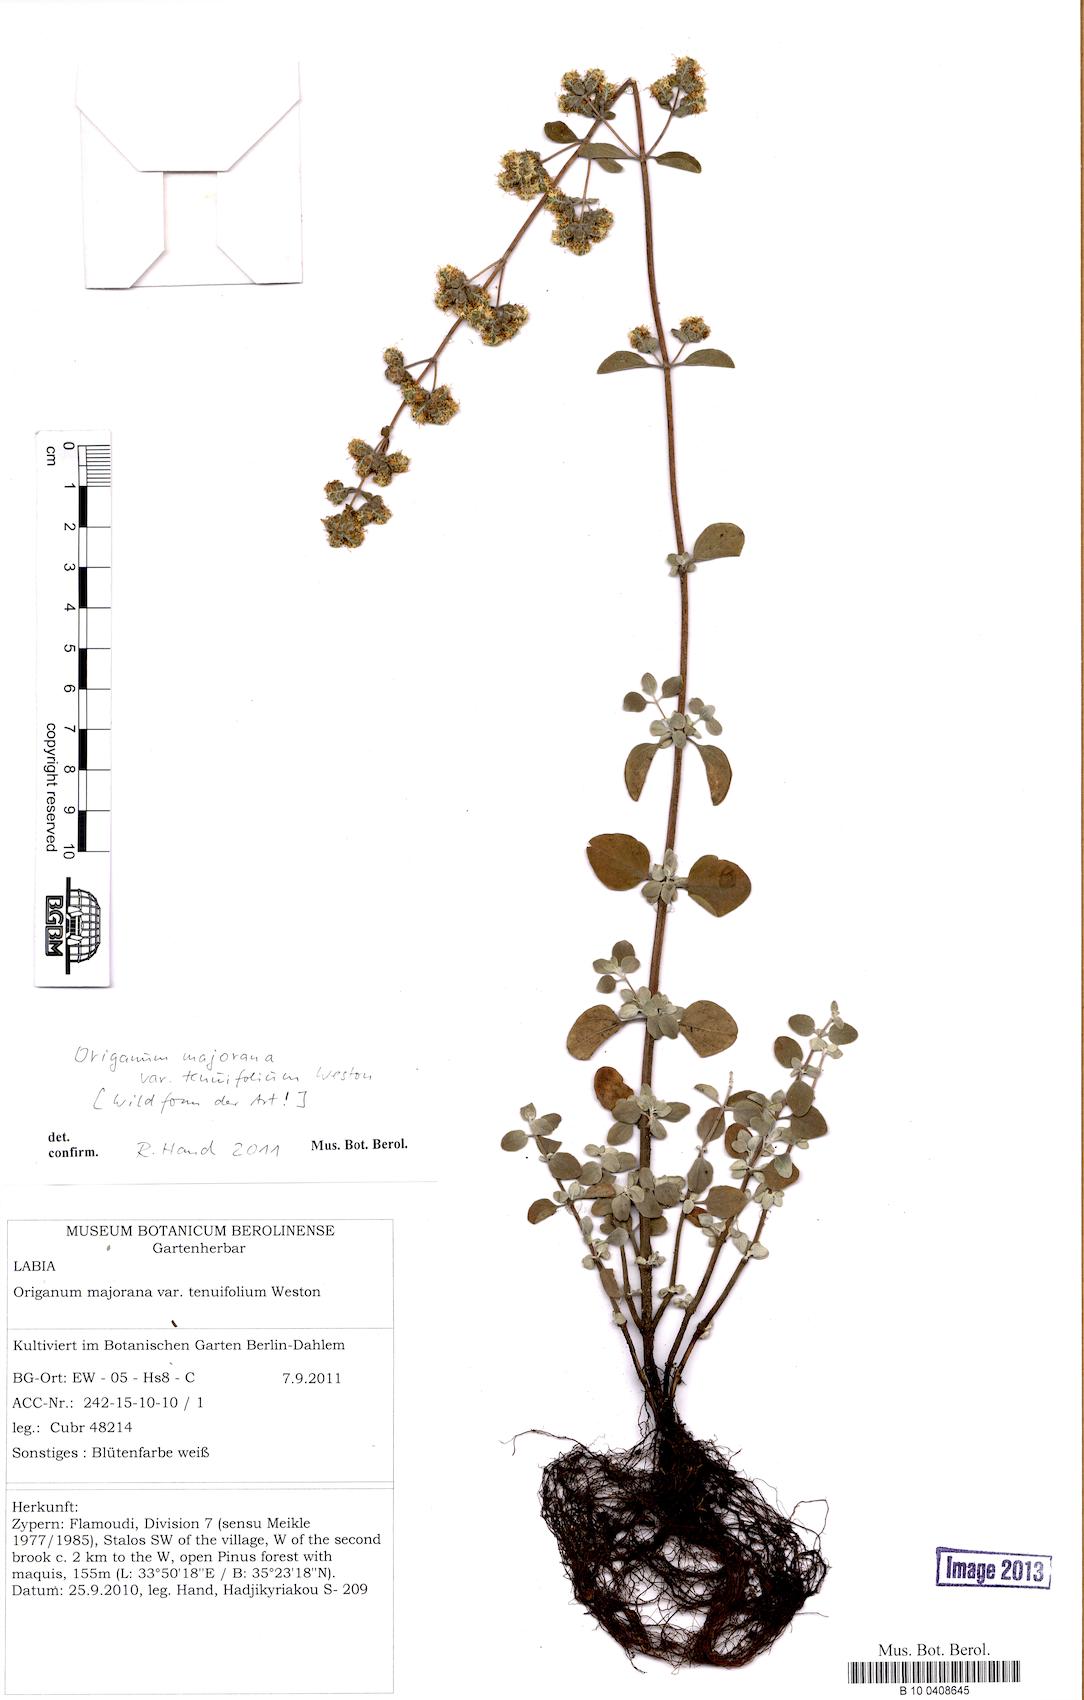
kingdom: Plantae
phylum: Tracheophyta
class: Magnoliopsida
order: Lamiales
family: Lamiaceae
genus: Origanum
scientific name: Origanum majorana
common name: Sweet marjoram
